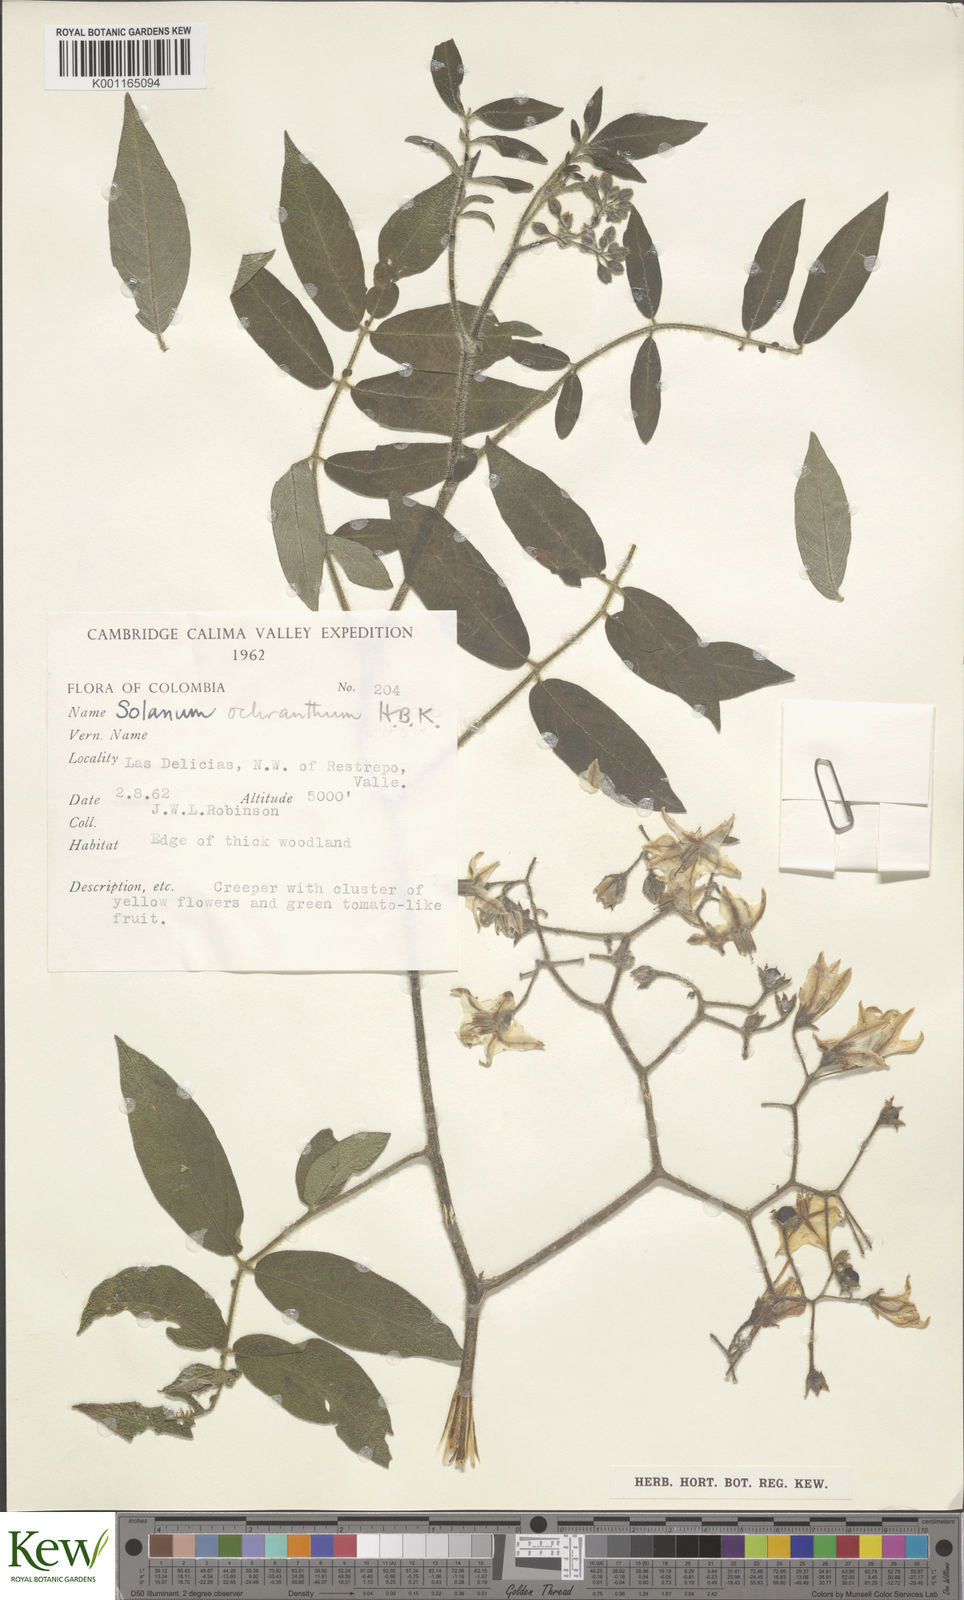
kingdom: Plantae
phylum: Tracheophyta
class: Magnoliopsida
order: Solanales
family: Solanaceae
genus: Solanum
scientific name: Solanum ochranthum
